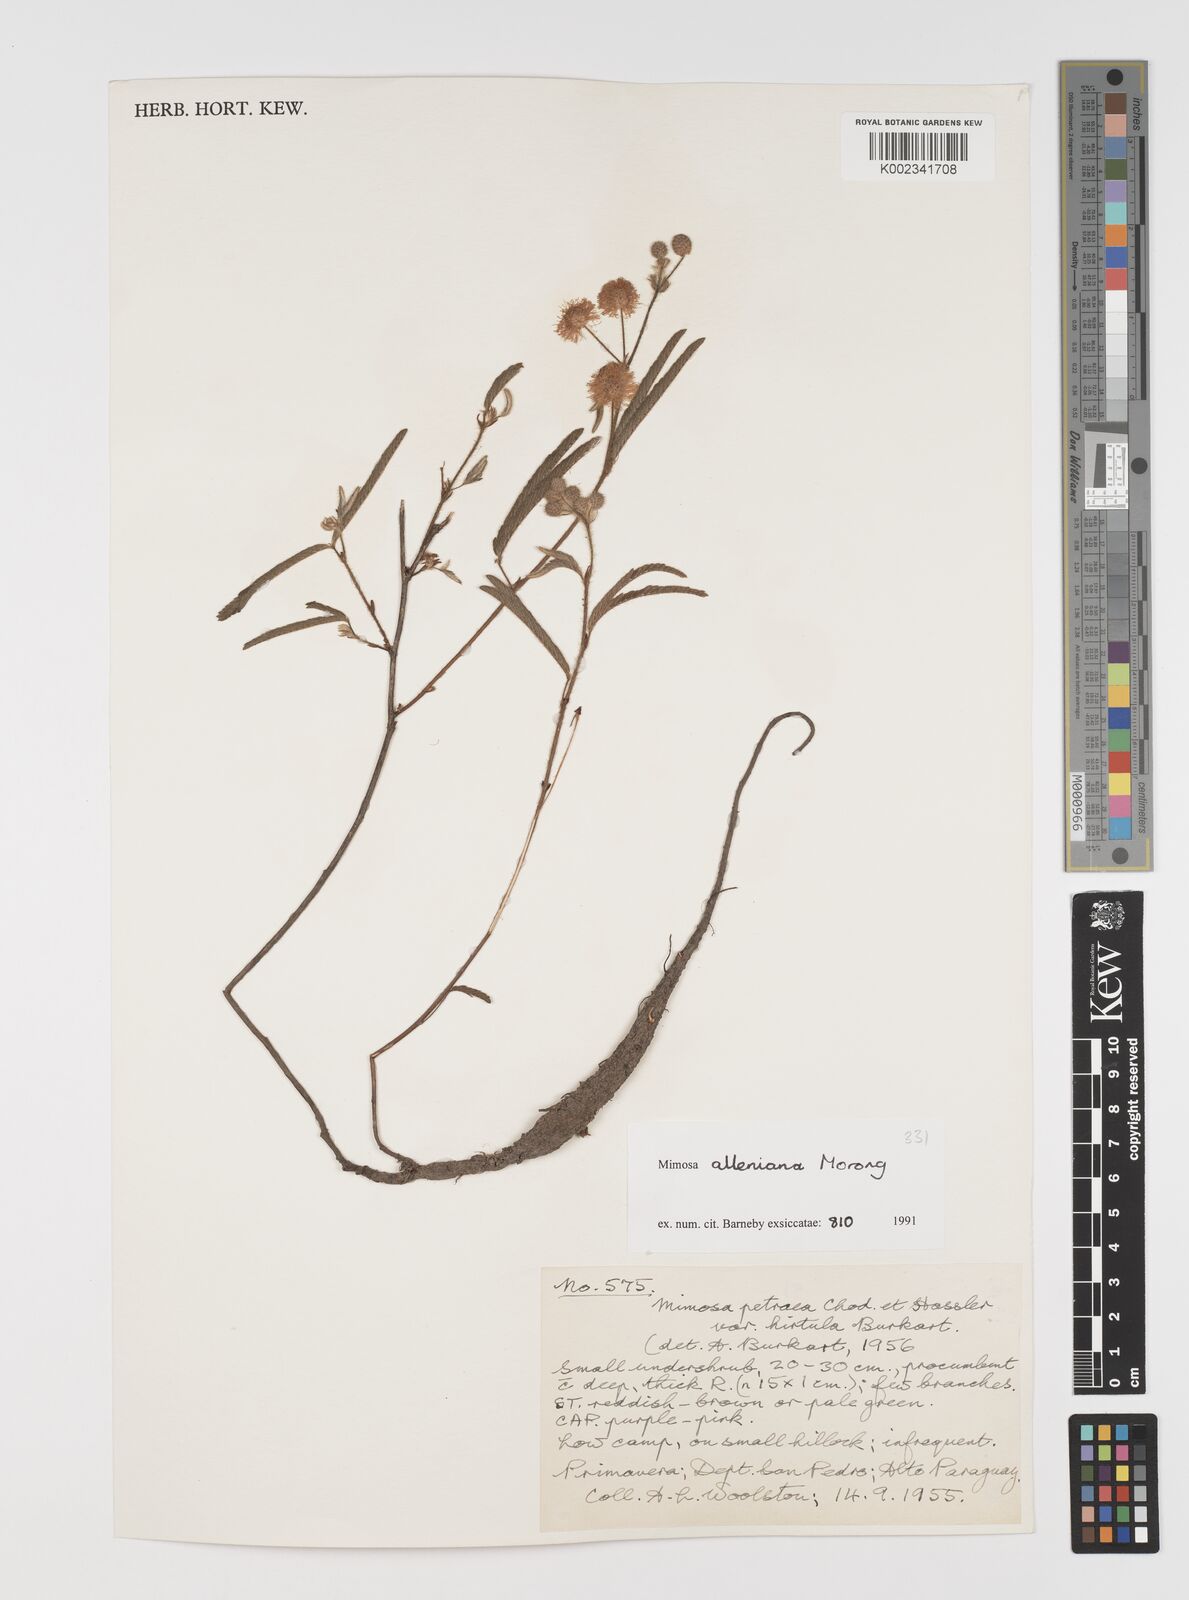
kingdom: Plantae
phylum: Tracheophyta
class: Magnoliopsida
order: Fabales
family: Fabaceae
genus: Mimosa
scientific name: Mimosa alleniana
